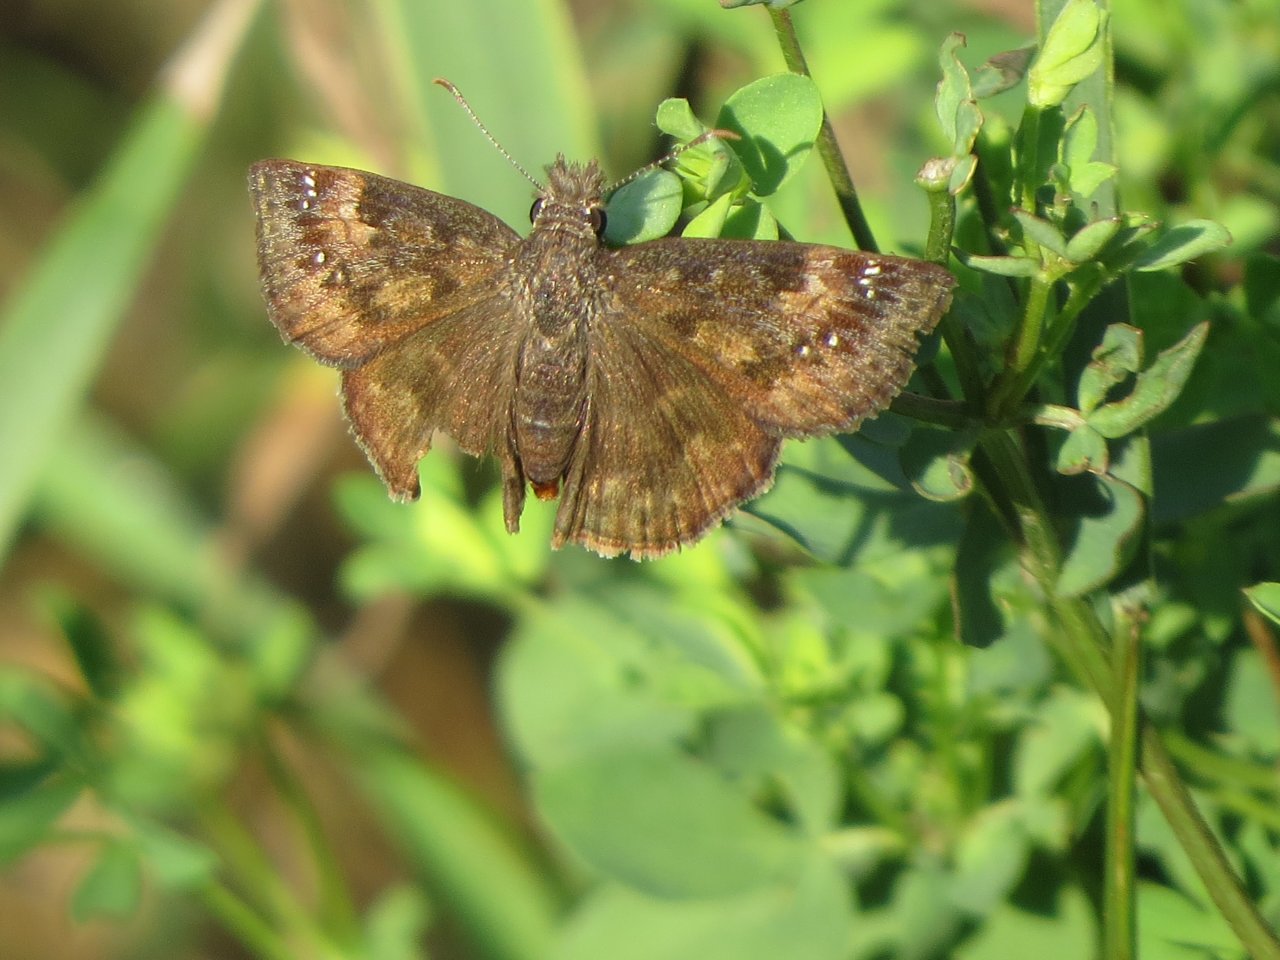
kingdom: Animalia
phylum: Arthropoda
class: Insecta
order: Lepidoptera
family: Hesperiidae
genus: Gesta
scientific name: Gesta
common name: Wild Indigo Duskywing
